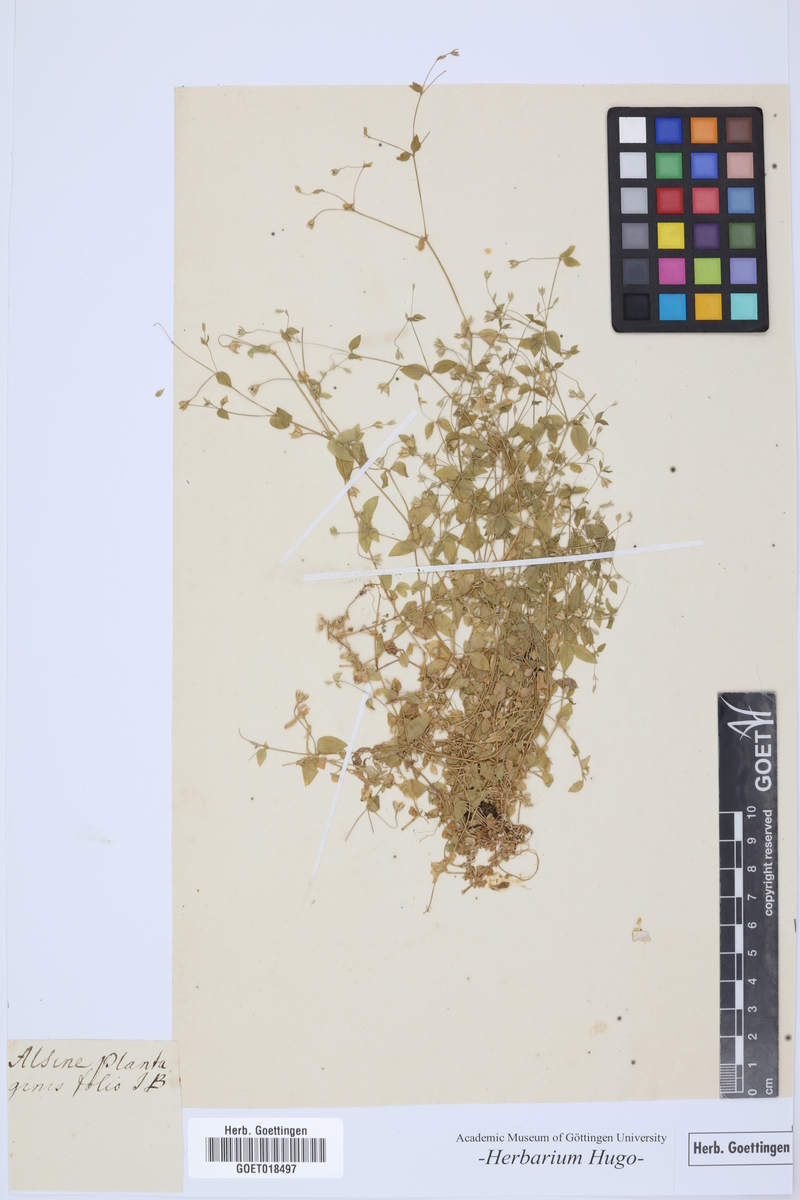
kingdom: Plantae
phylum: Tracheophyta
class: Magnoliopsida
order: Caryophyllales
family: Caryophyllaceae
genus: Alsine
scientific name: Alsine
